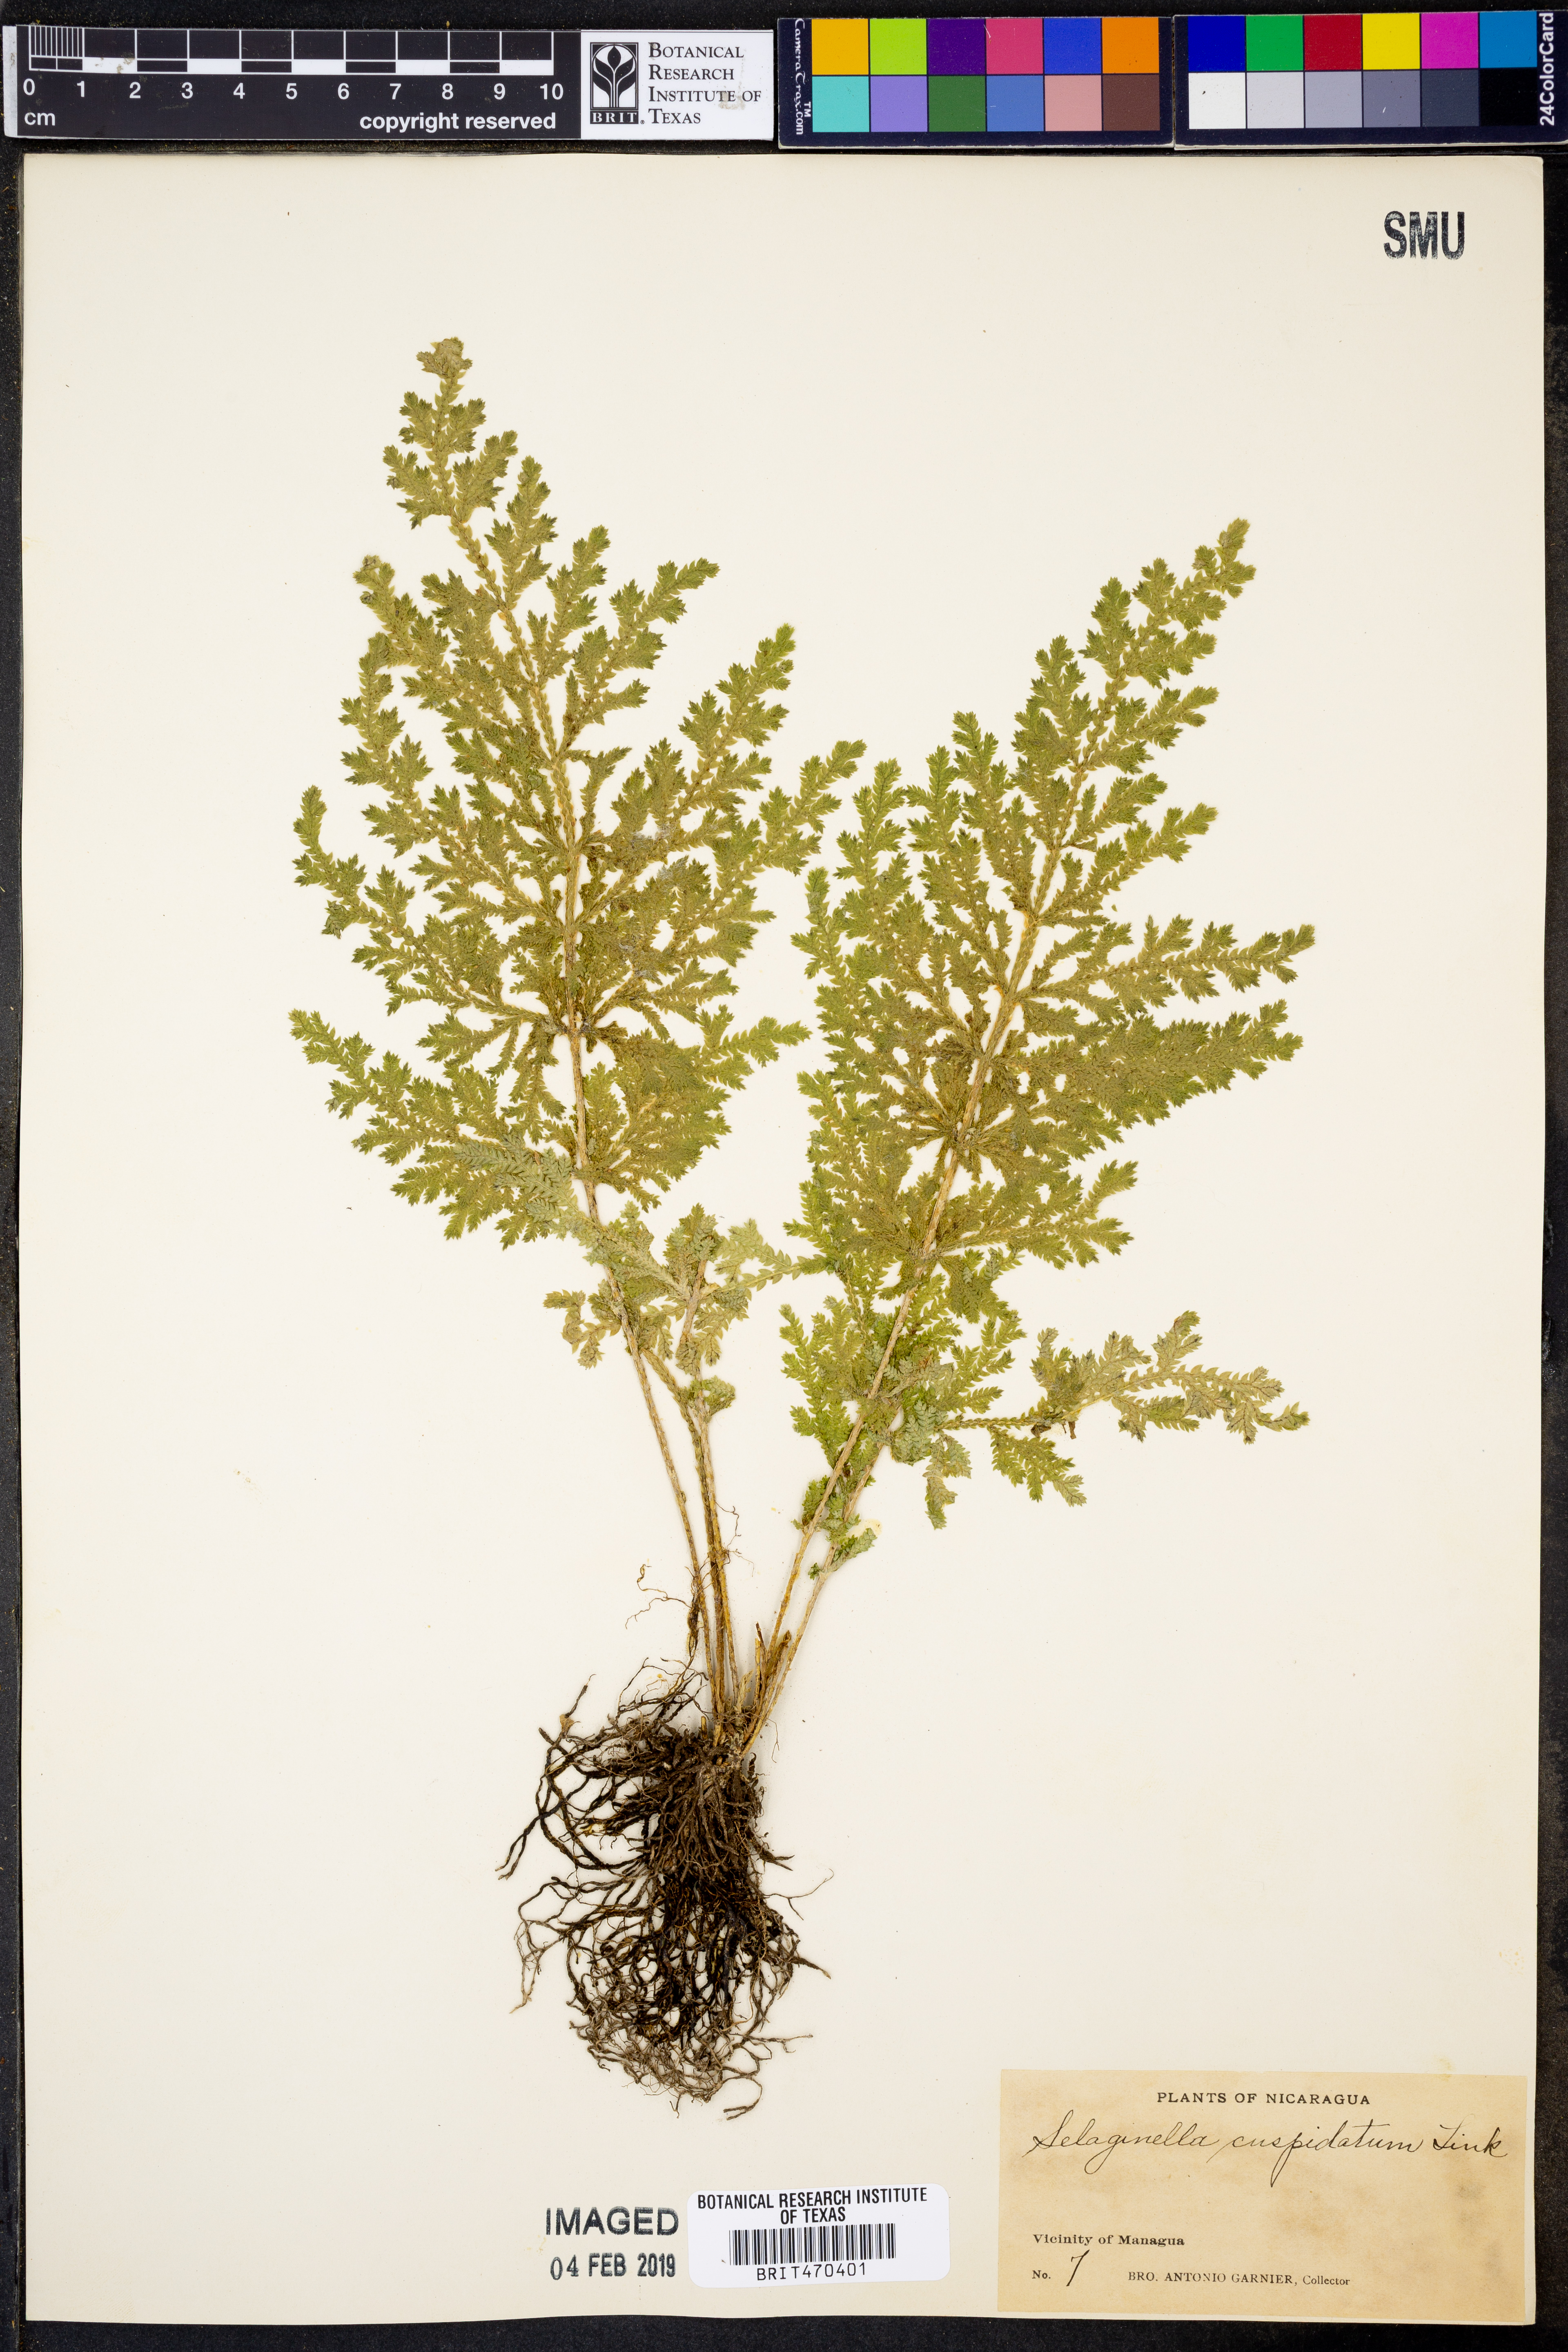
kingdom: Plantae
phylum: Tracheophyta
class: Lycopodiopsida
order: Selaginellales
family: Selaginellaceae
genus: Selaginella
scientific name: Selaginella pallescens
